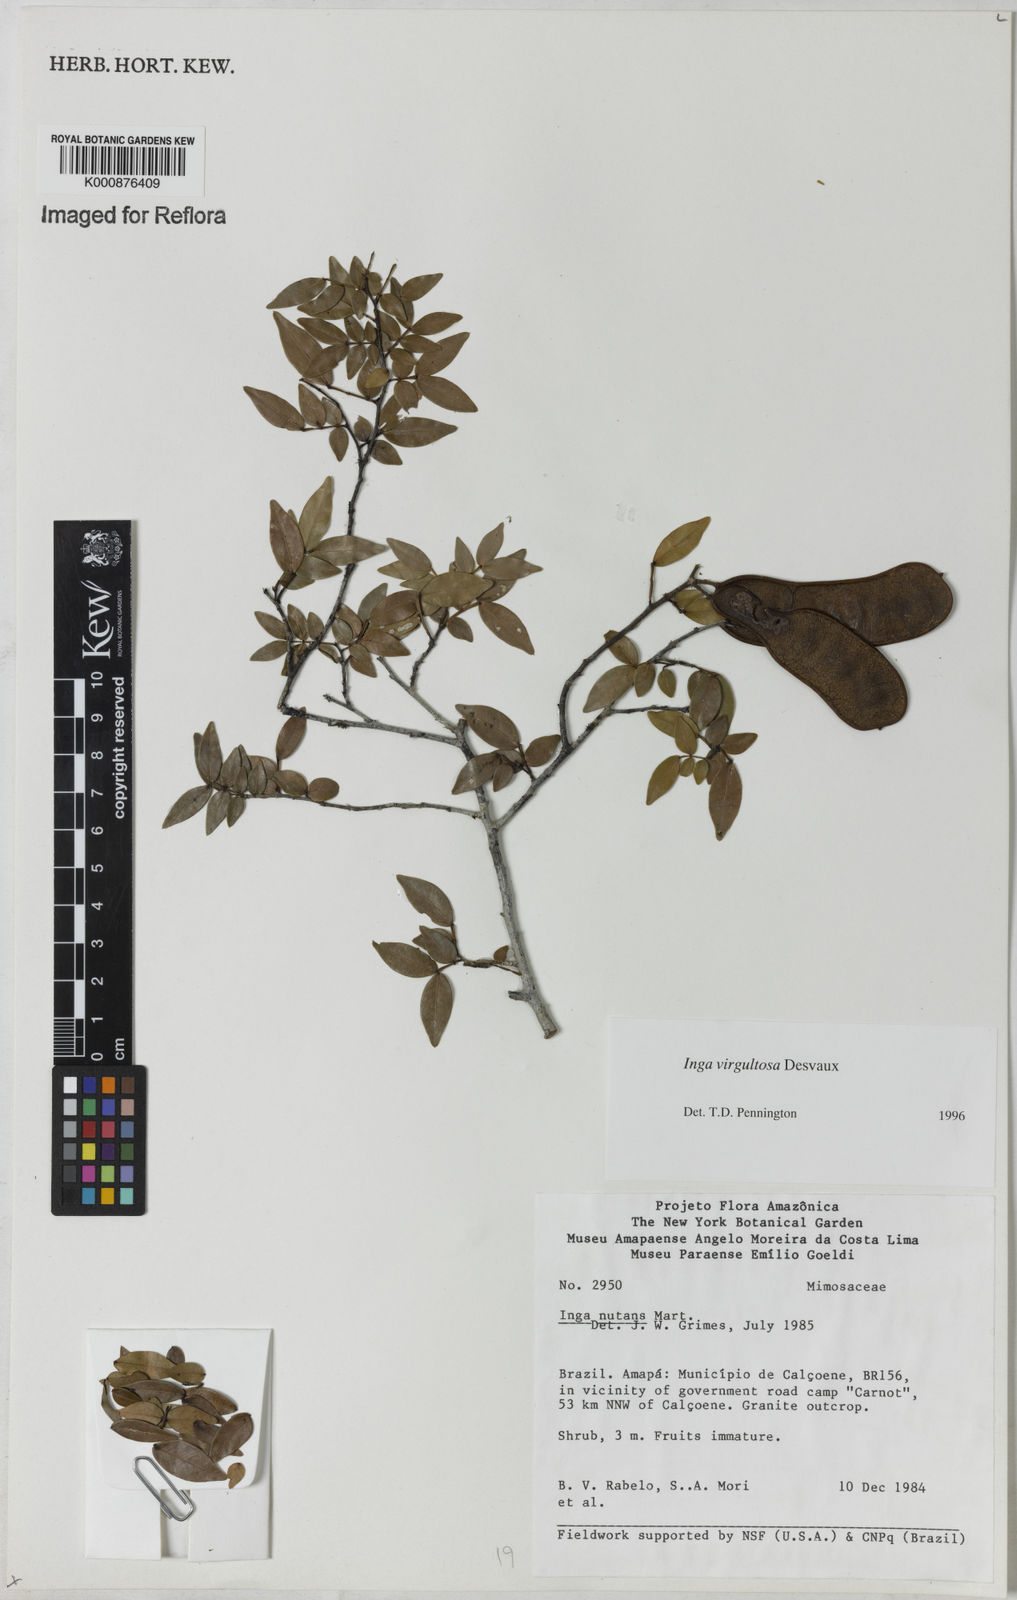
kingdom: Plantae
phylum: Tracheophyta
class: Magnoliopsida
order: Fabales
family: Fabaceae
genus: Inga
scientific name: Inga virgultosa
